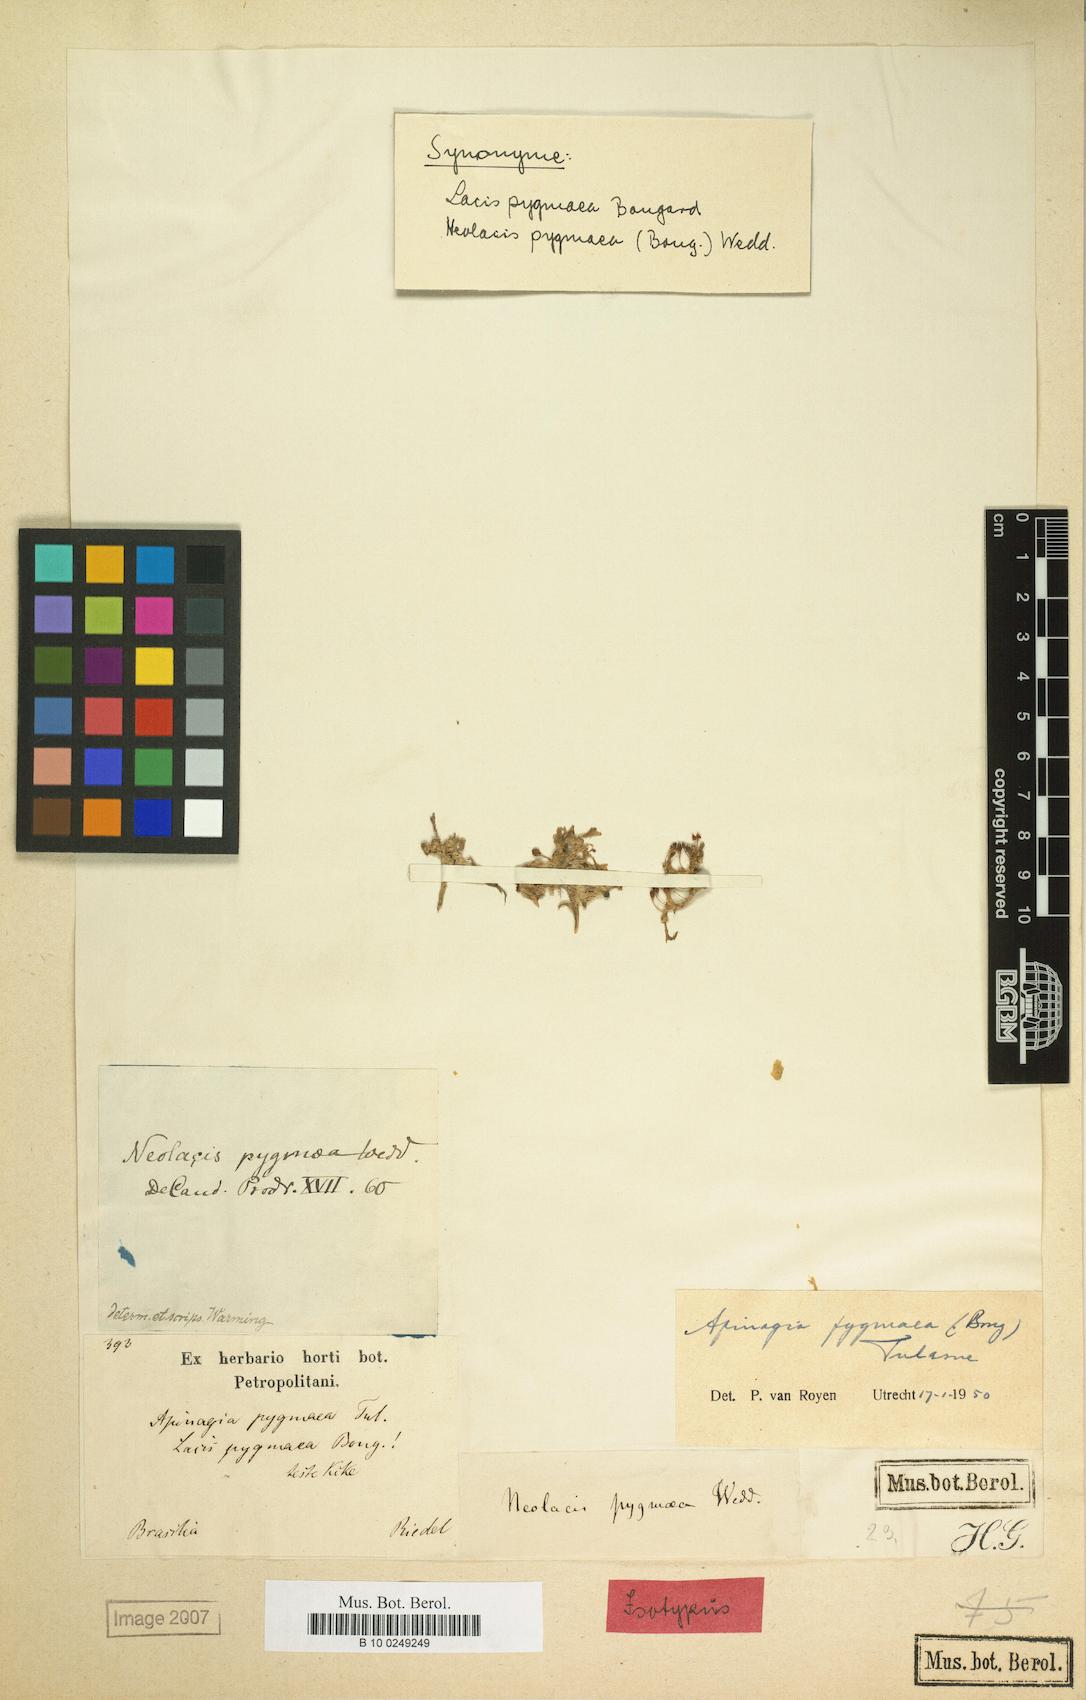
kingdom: Plantae
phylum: Tracheophyta
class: Magnoliopsida
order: Malpighiales
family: Podostemaceae
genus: Apinagia
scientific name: Apinagia pygmaea
